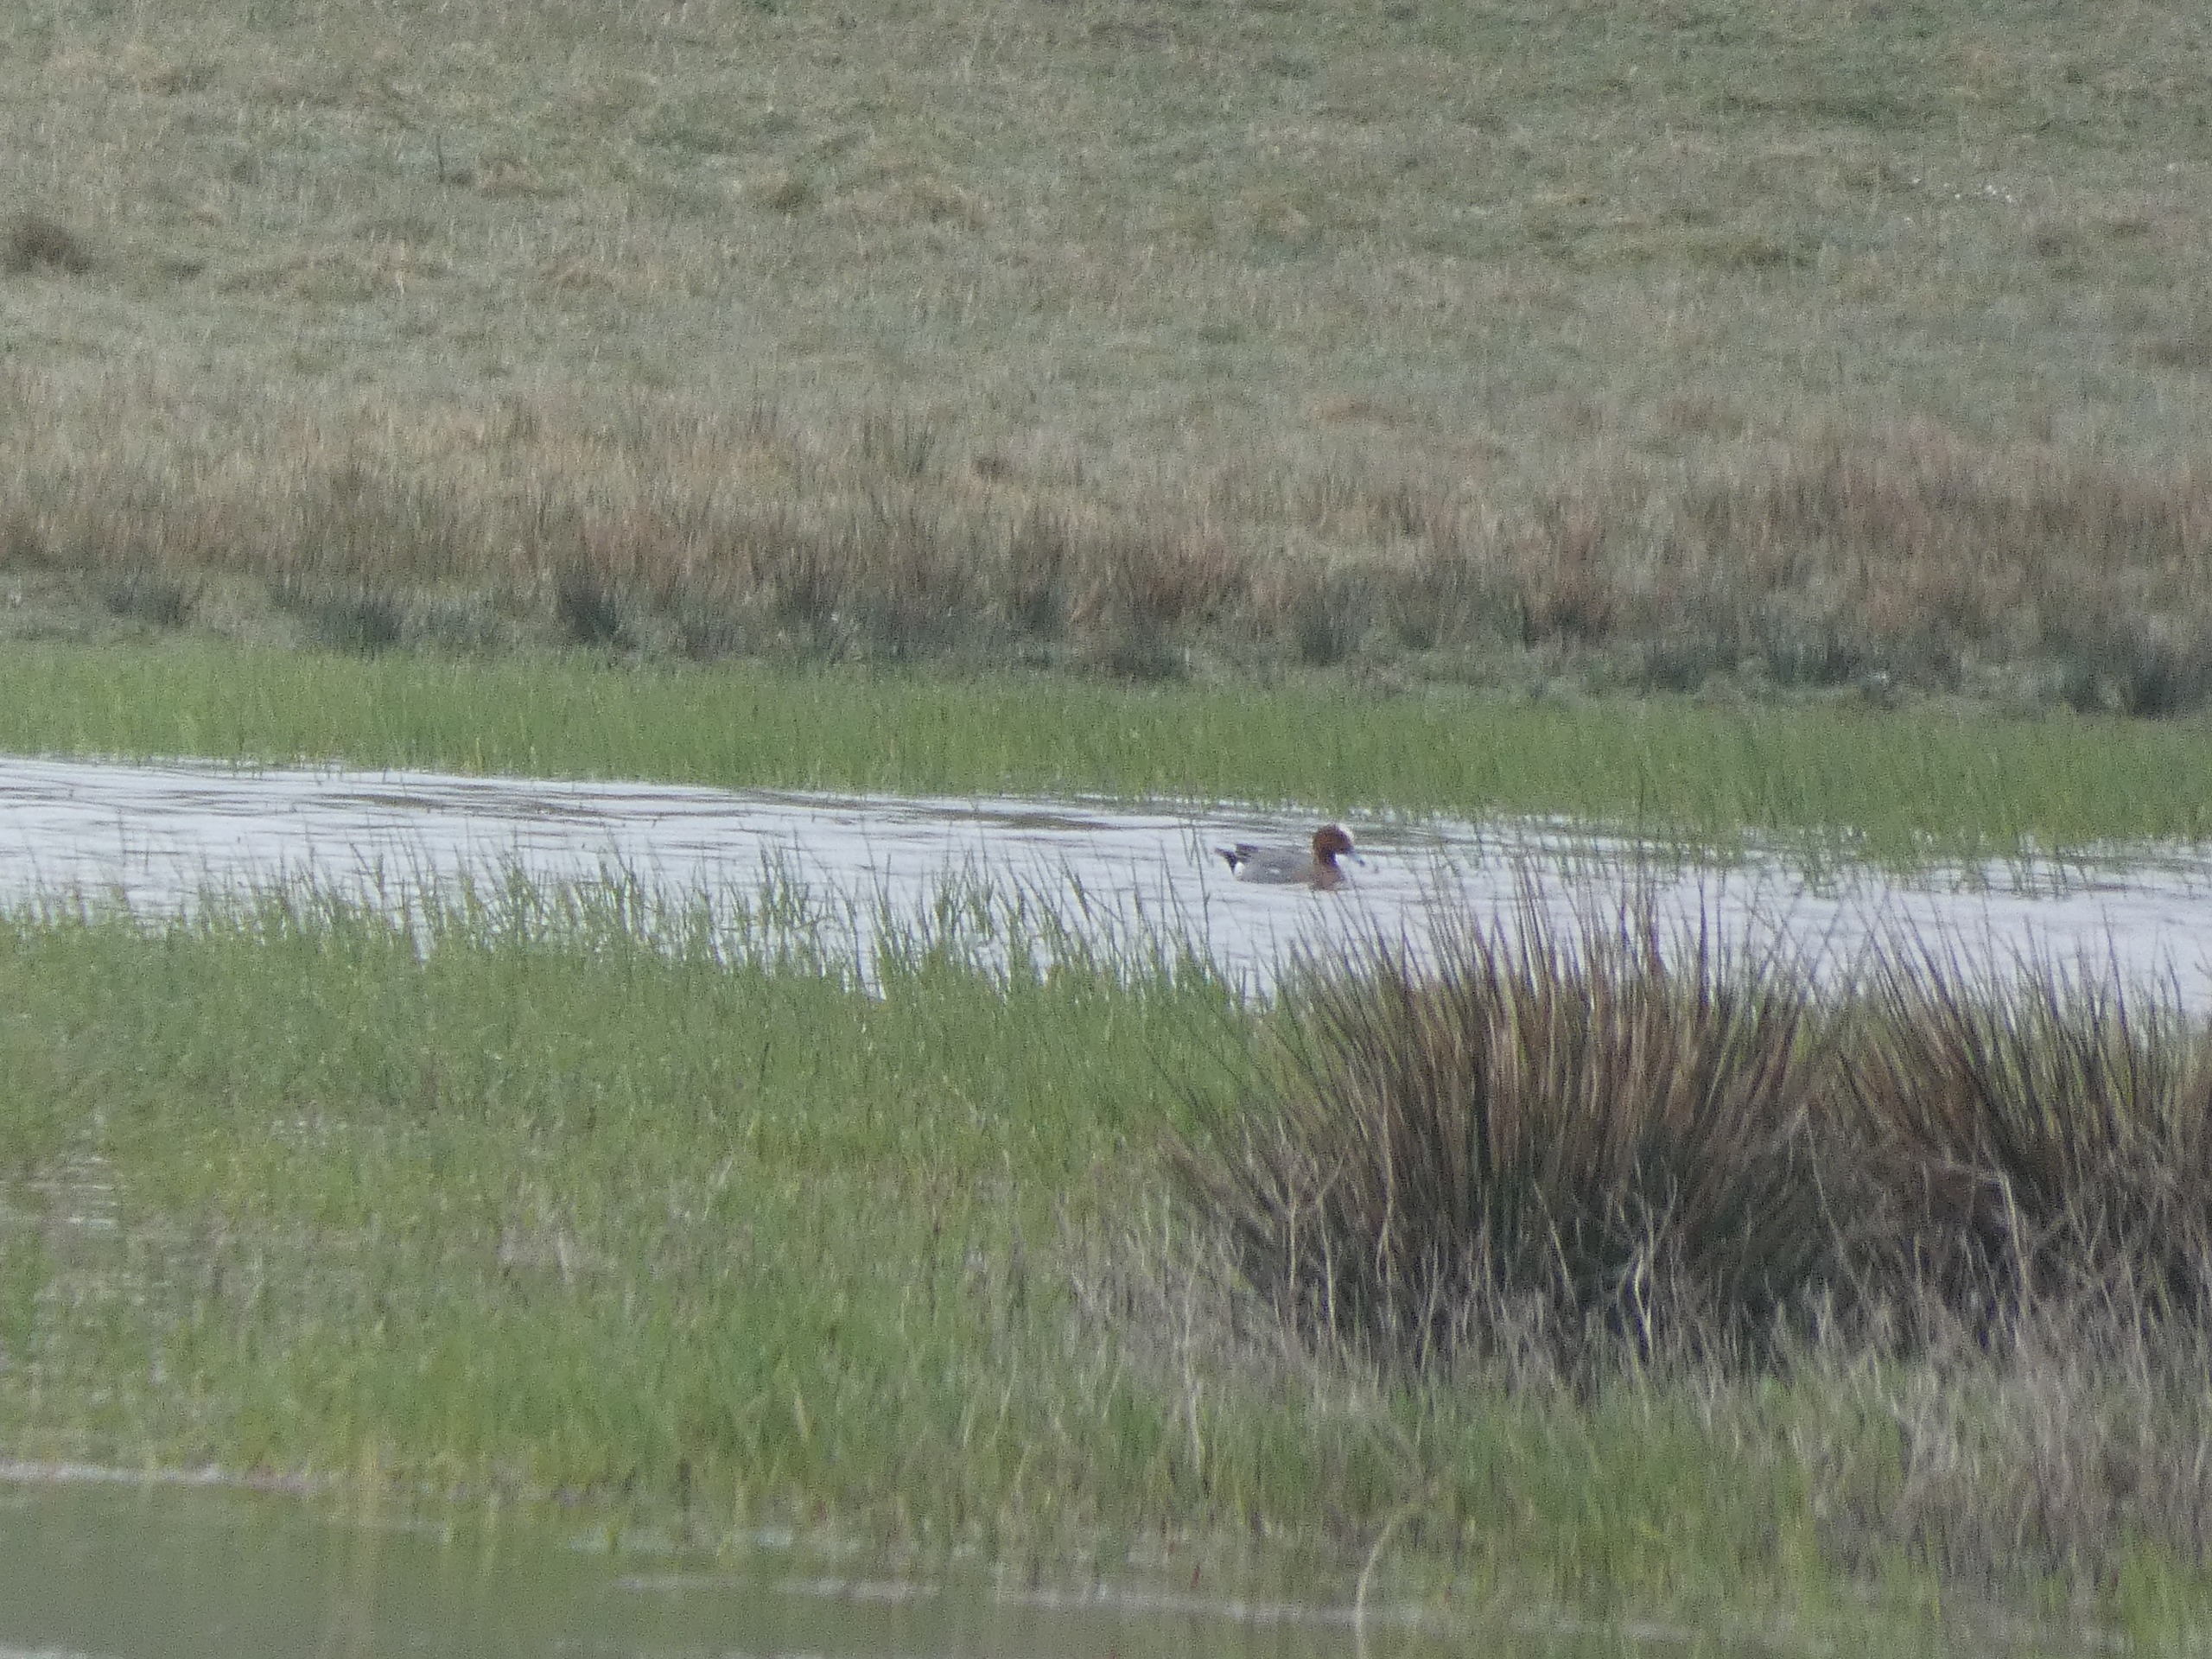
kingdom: Animalia
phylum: Chordata
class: Aves
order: Anseriformes
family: Anatidae
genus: Mareca
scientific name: Mareca penelope
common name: Pibeand
